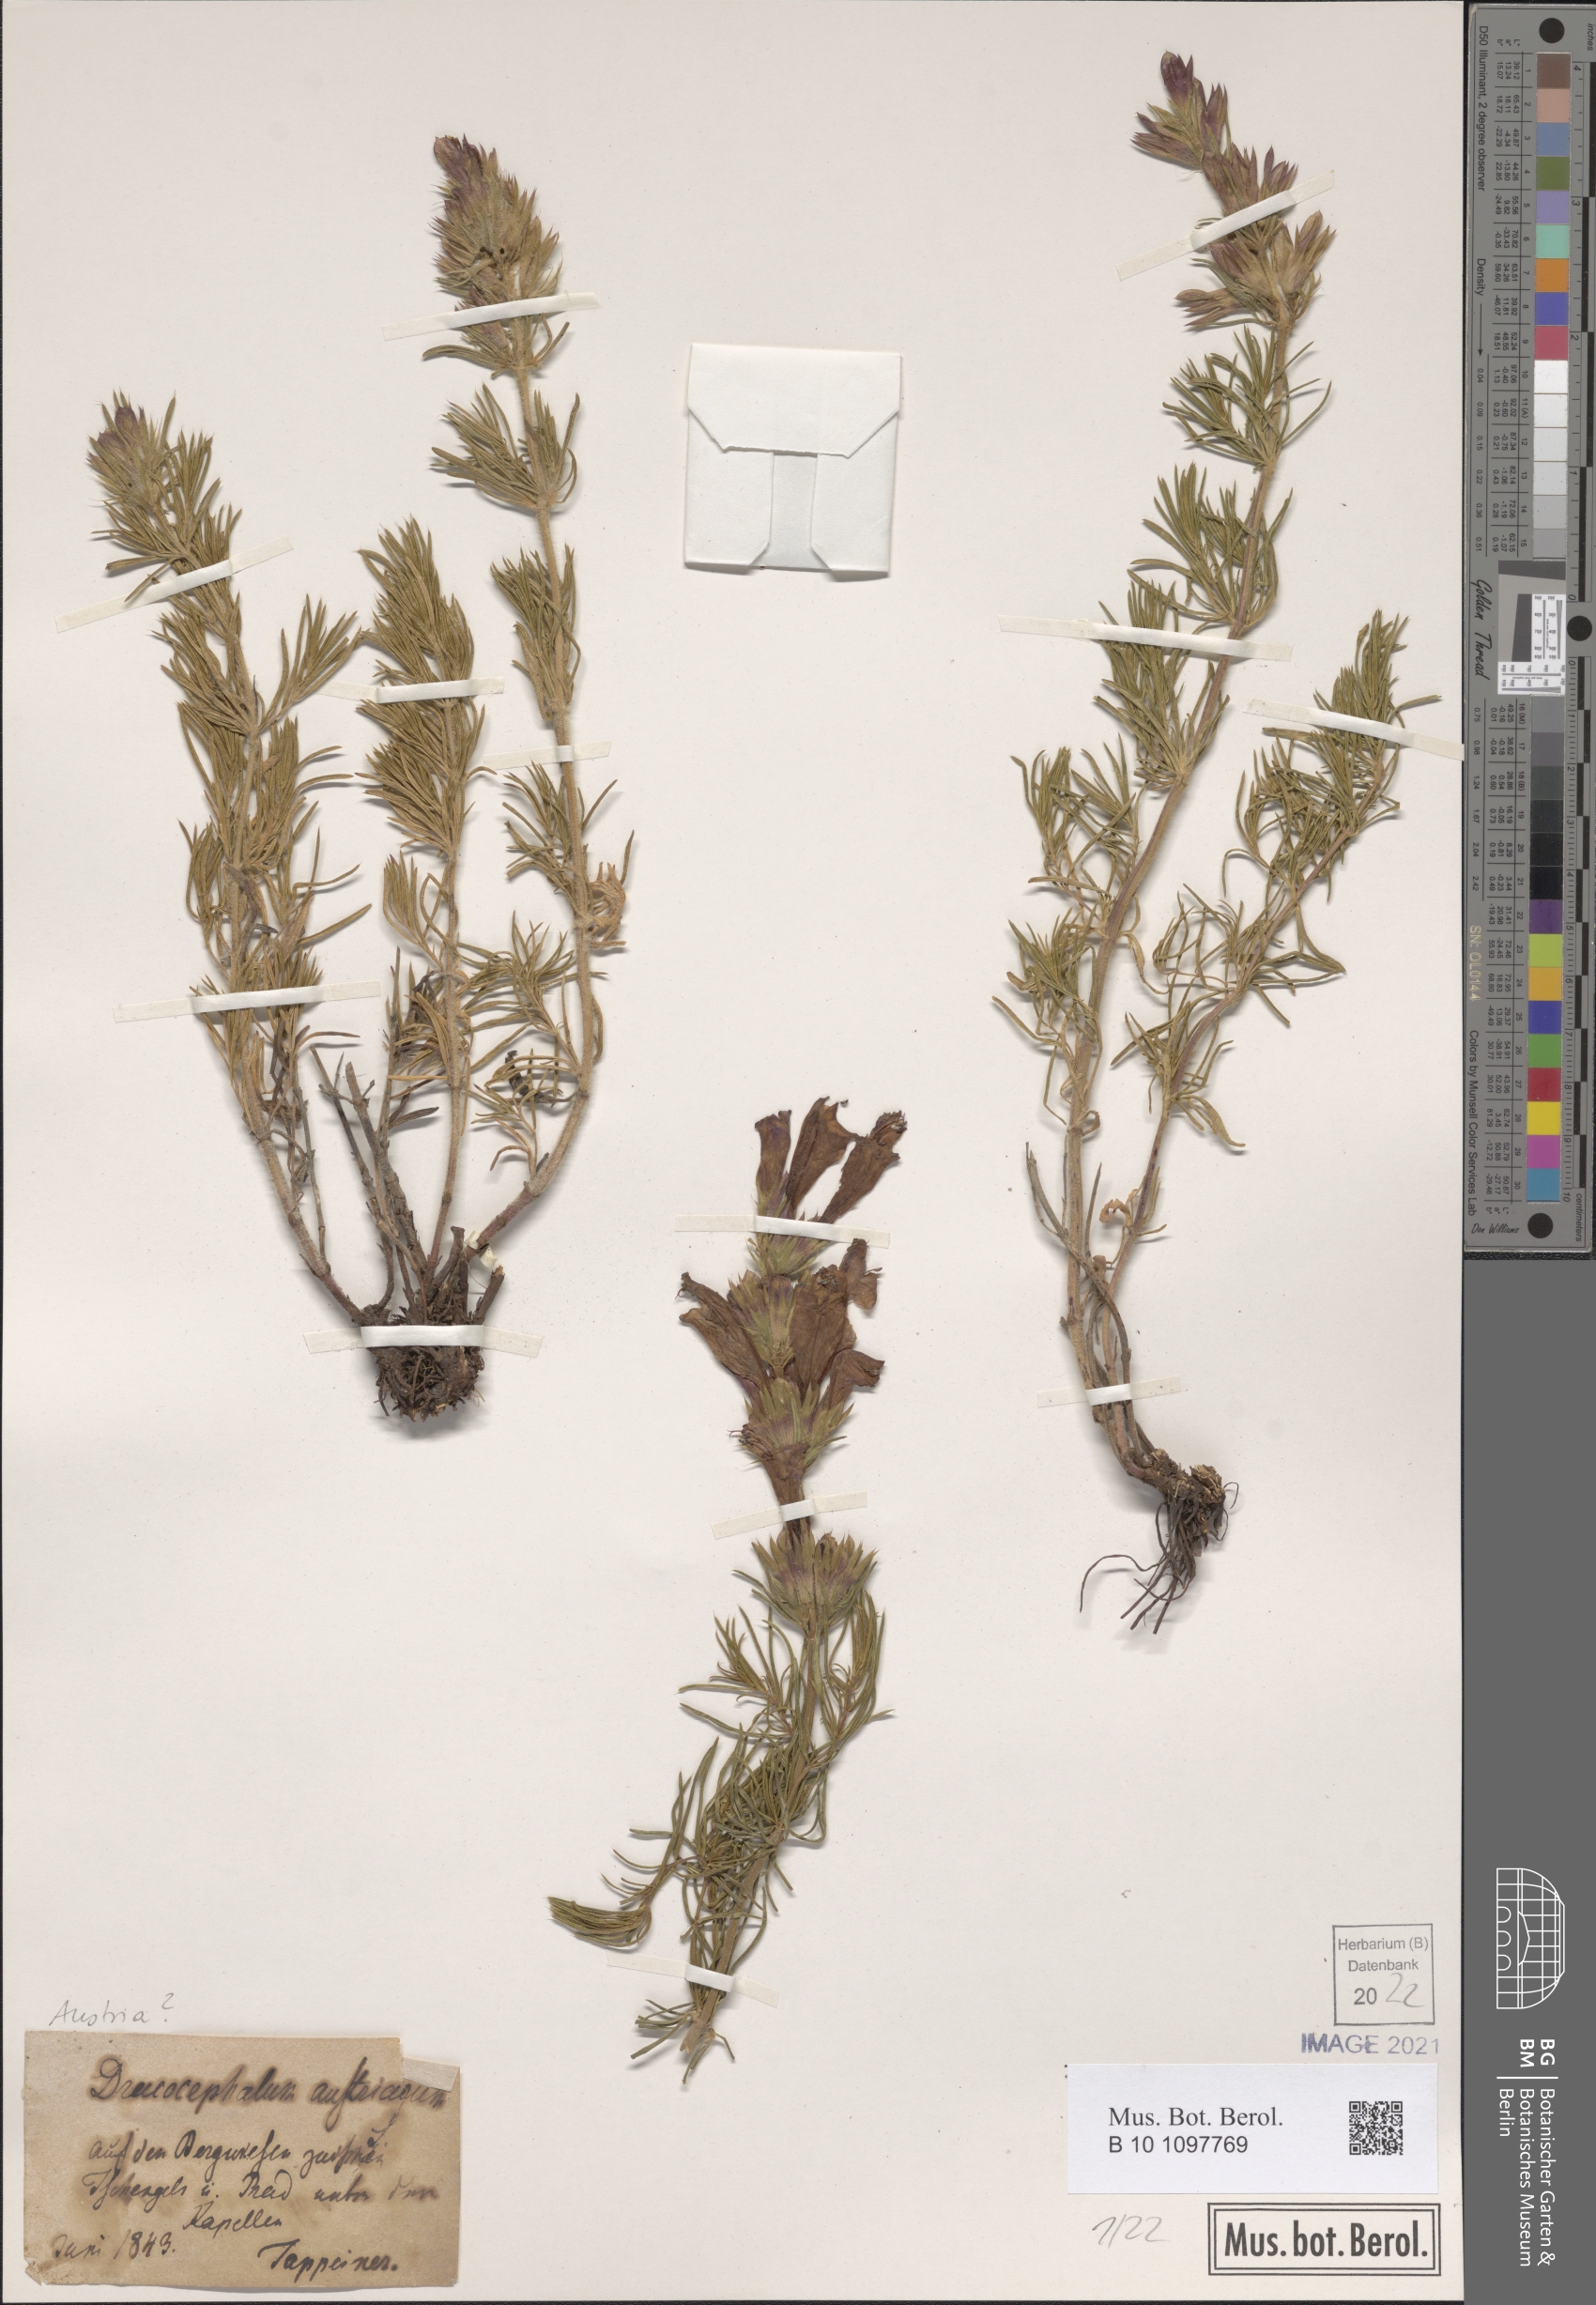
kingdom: Plantae
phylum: Tracheophyta
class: Magnoliopsida
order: Lamiales
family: Lamiaceae
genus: Dracocephalum
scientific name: Dracocephalum austriacum
